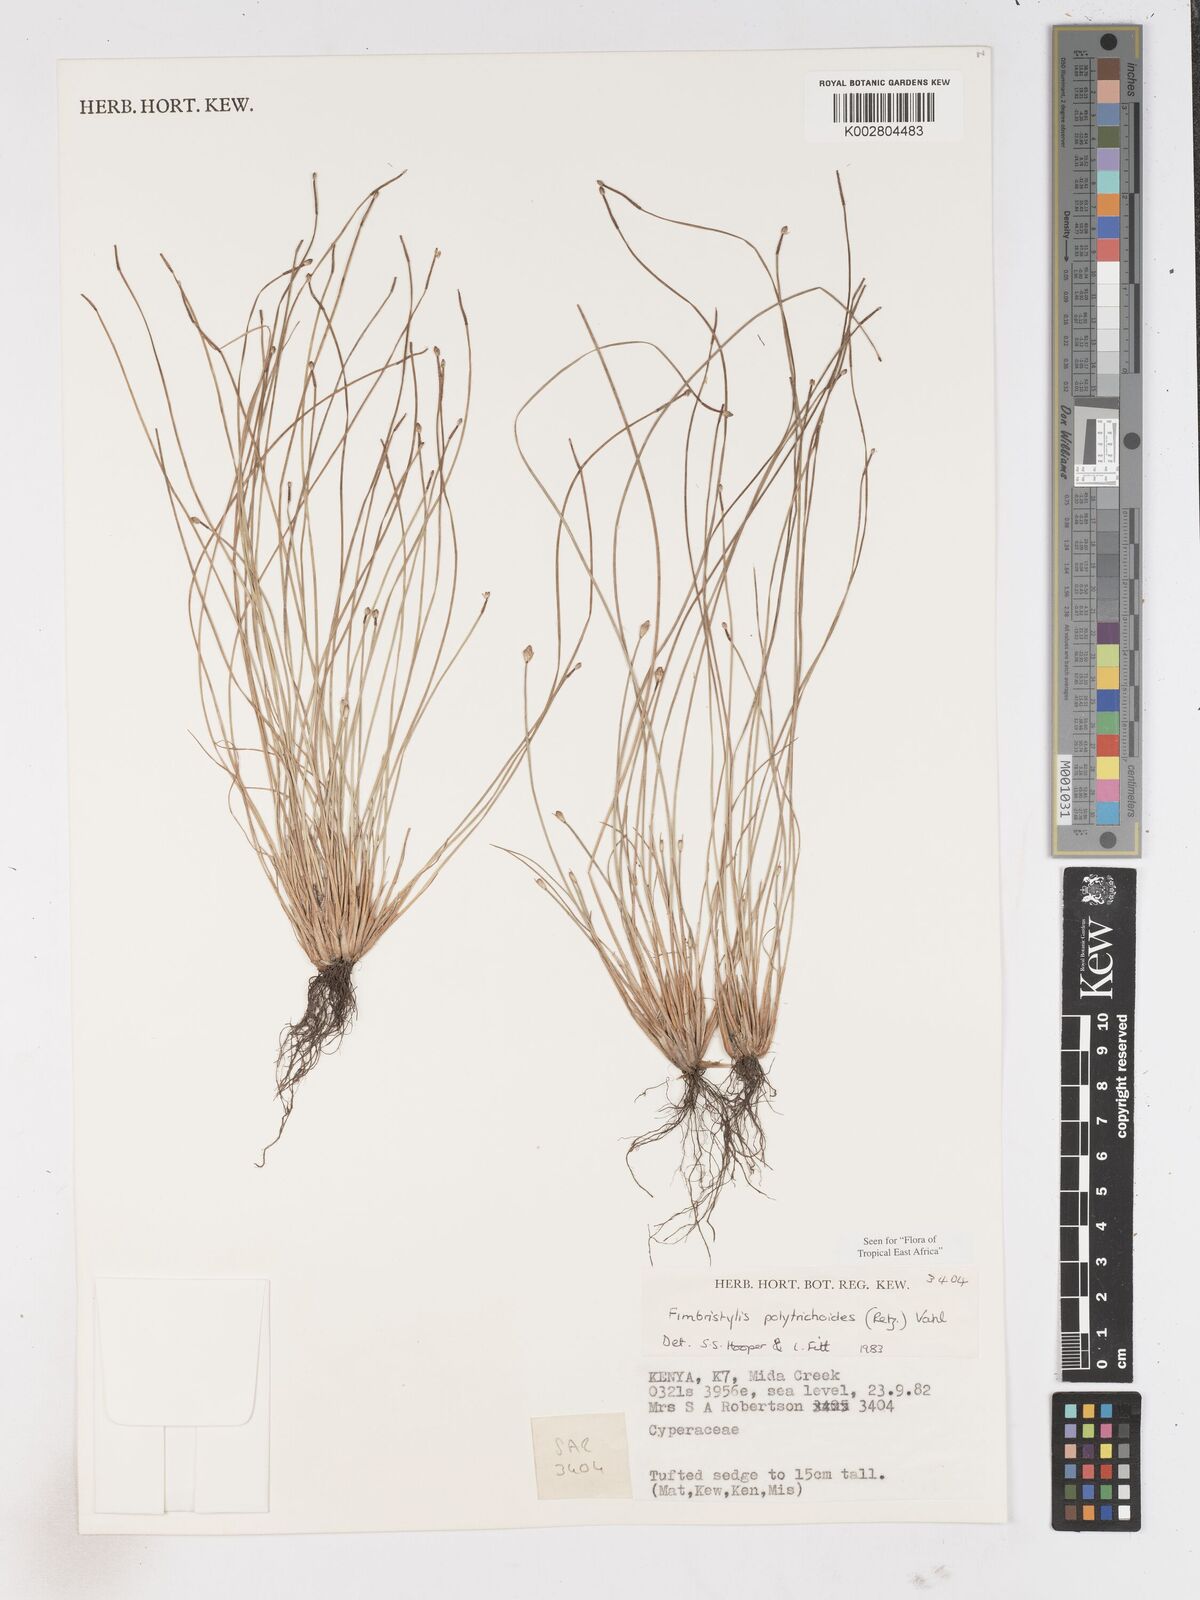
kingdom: Plantae
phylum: Tracheophyta
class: Liliopsida
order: Poales
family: Cyperaceae
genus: Fimbristylis
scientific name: Fimbristylis polytrichoides
